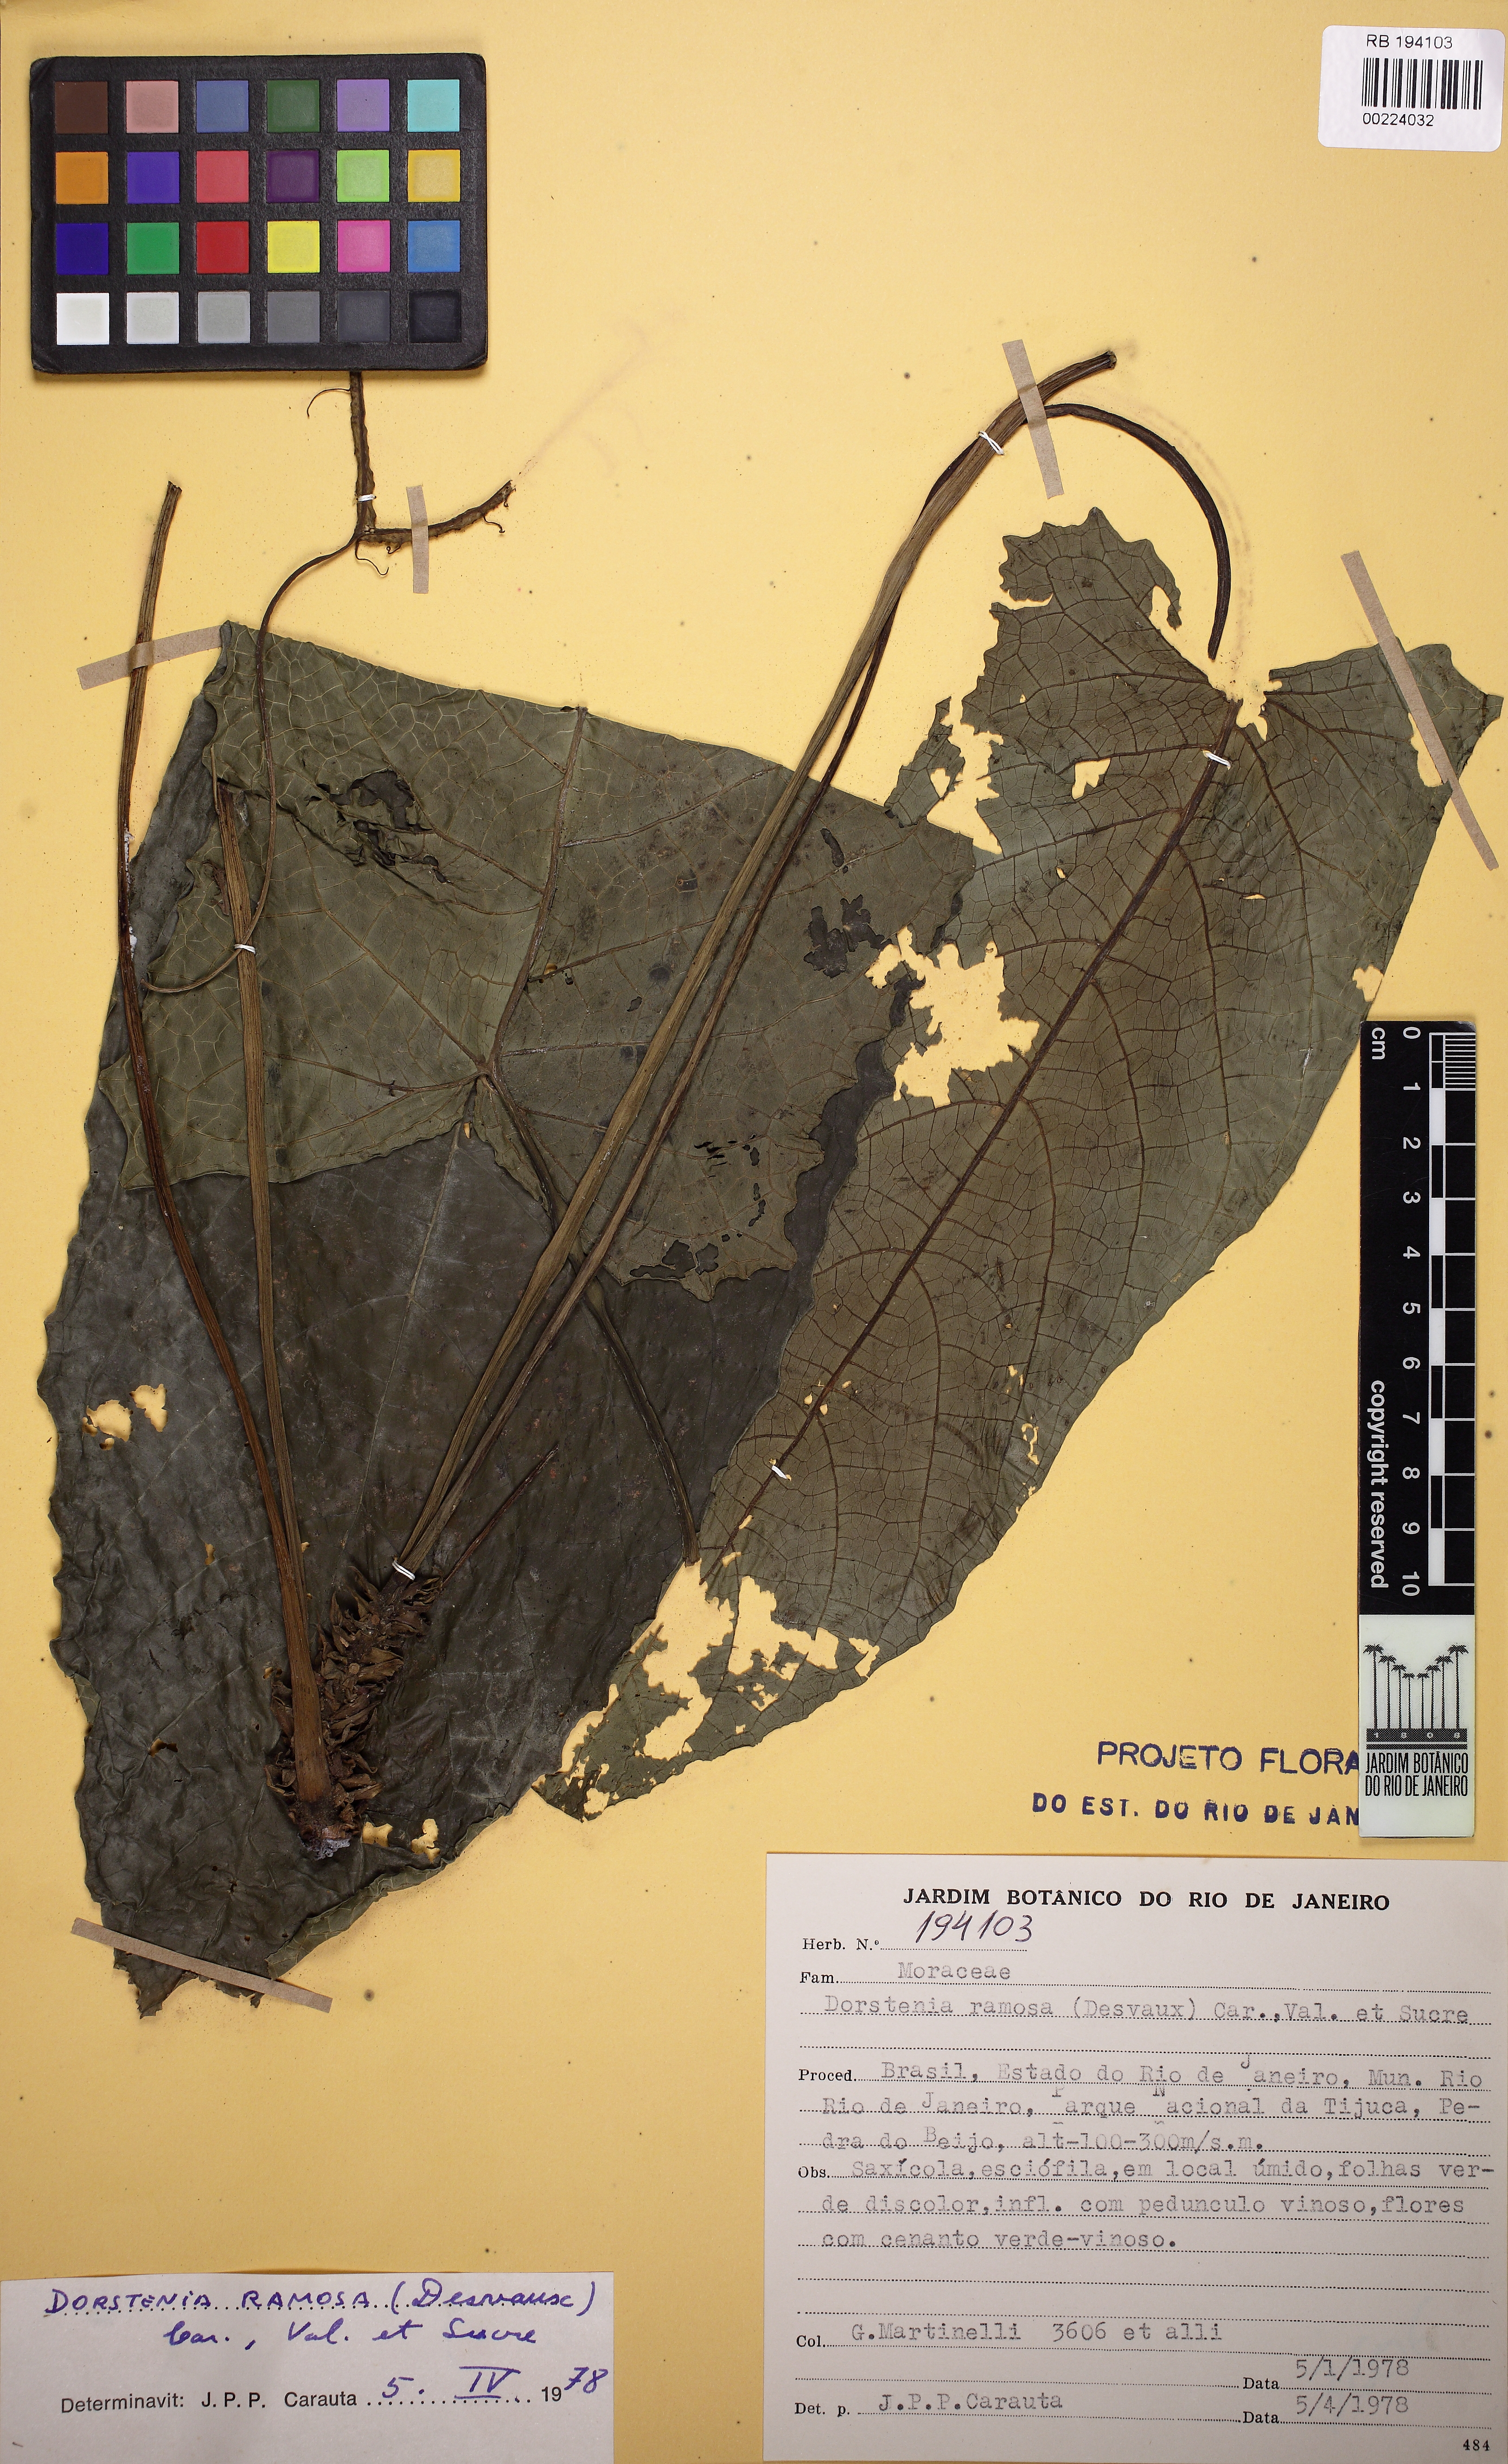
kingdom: Plantae
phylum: Tracheophyta
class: Magnoliopsida
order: Rosales
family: Moraceae
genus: Dorstenia
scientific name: Dorstenia ramosa
